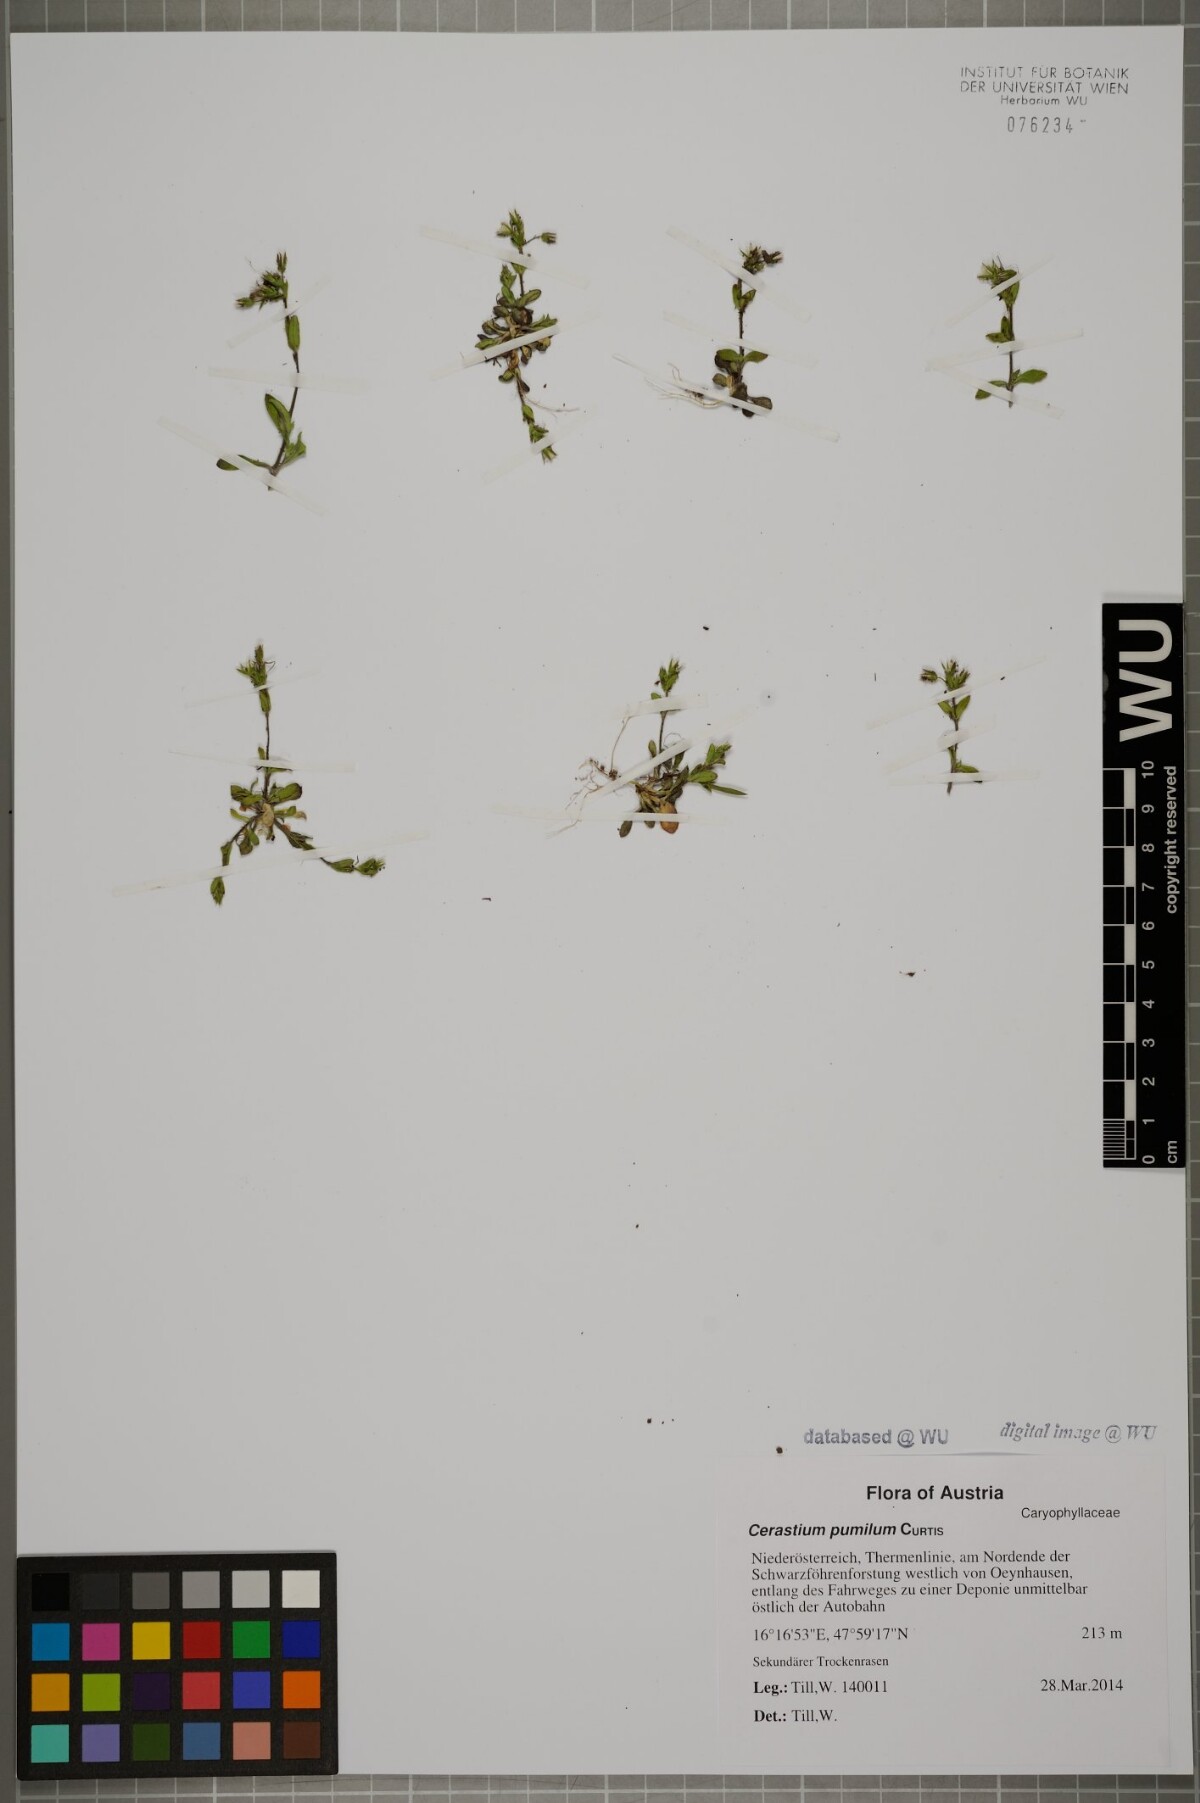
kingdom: Plantae
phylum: Tracheophyta
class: Magnoliopsida
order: Caryophyllales
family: Caryophyllaceae
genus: Cerastium
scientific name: Cerastium pumilum
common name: Dwarf mouse-ear
